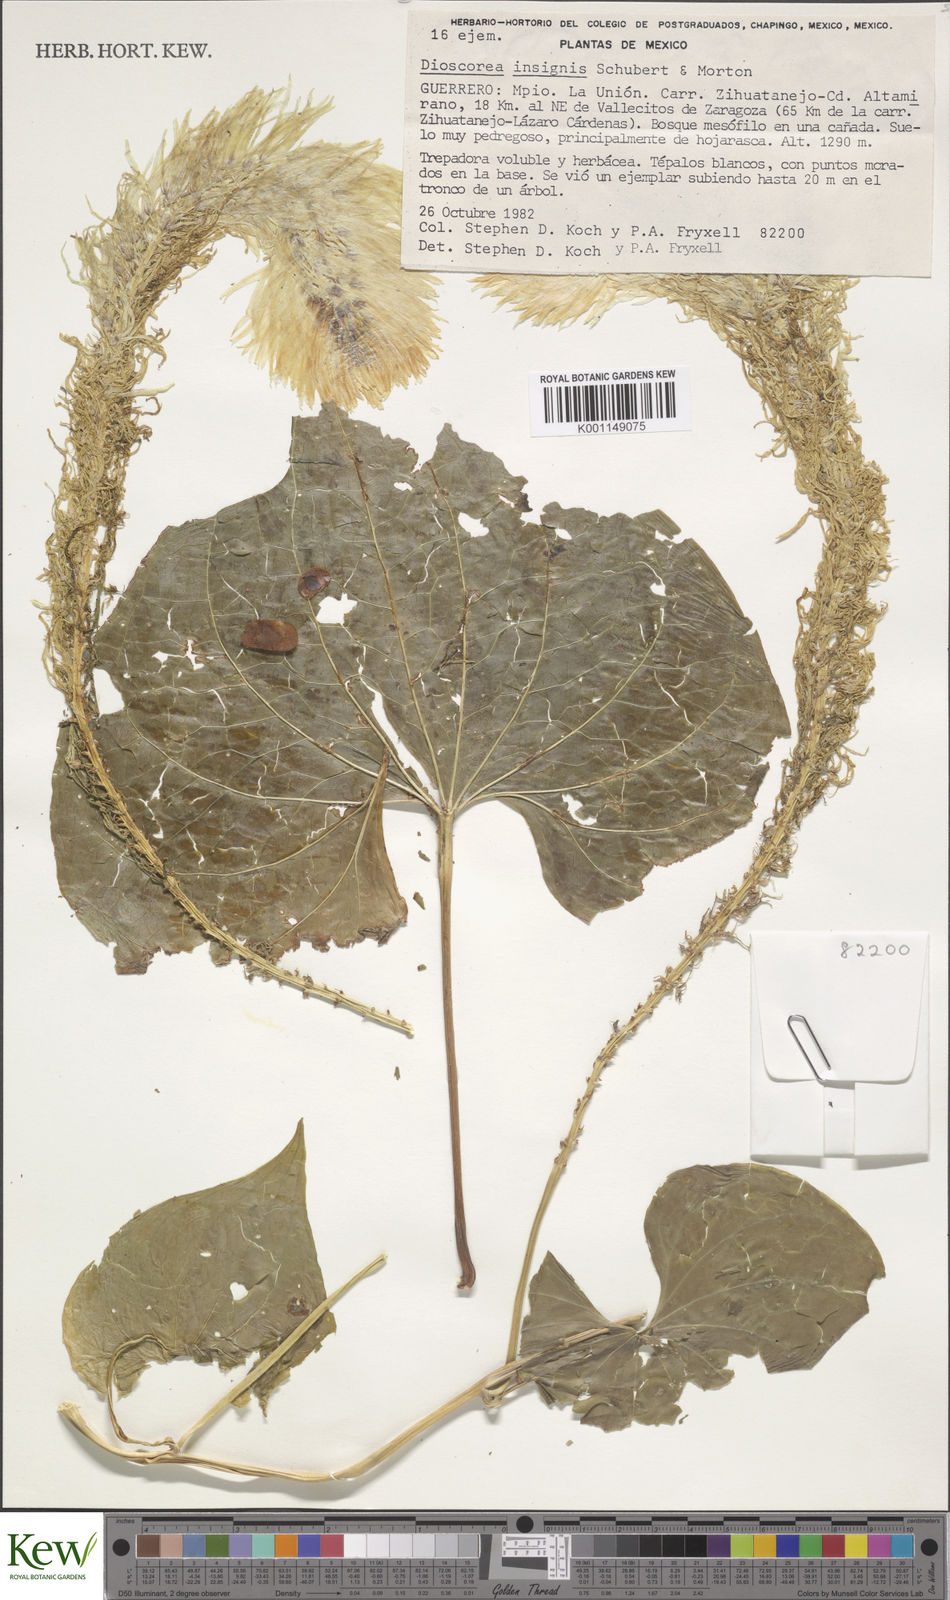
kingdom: Plantae
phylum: Tracheophyta
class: Liliopsida
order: Dioscoreales
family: Dioscoreaceae
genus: Dioscorea
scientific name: Dioscorea insignis
